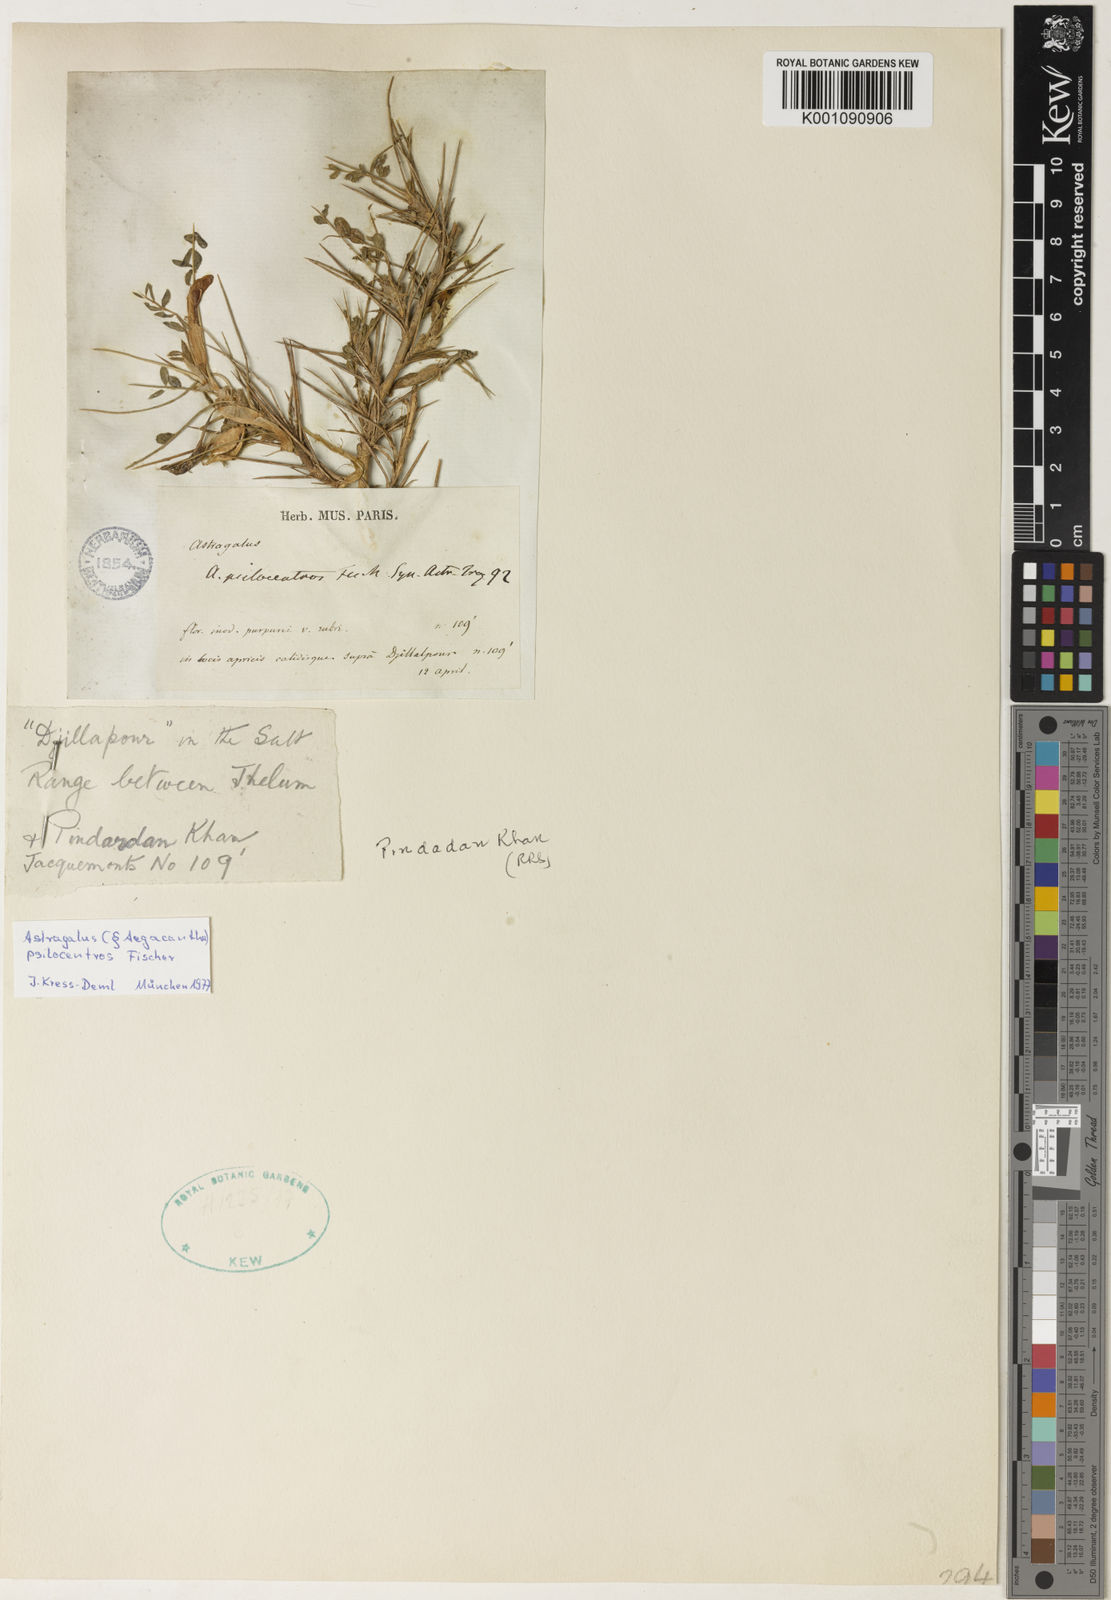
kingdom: Plantae
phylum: Tracheophyta
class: Magnoliopsida
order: Fabales
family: Fabaceae
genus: Astragalus
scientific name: Astragalus
